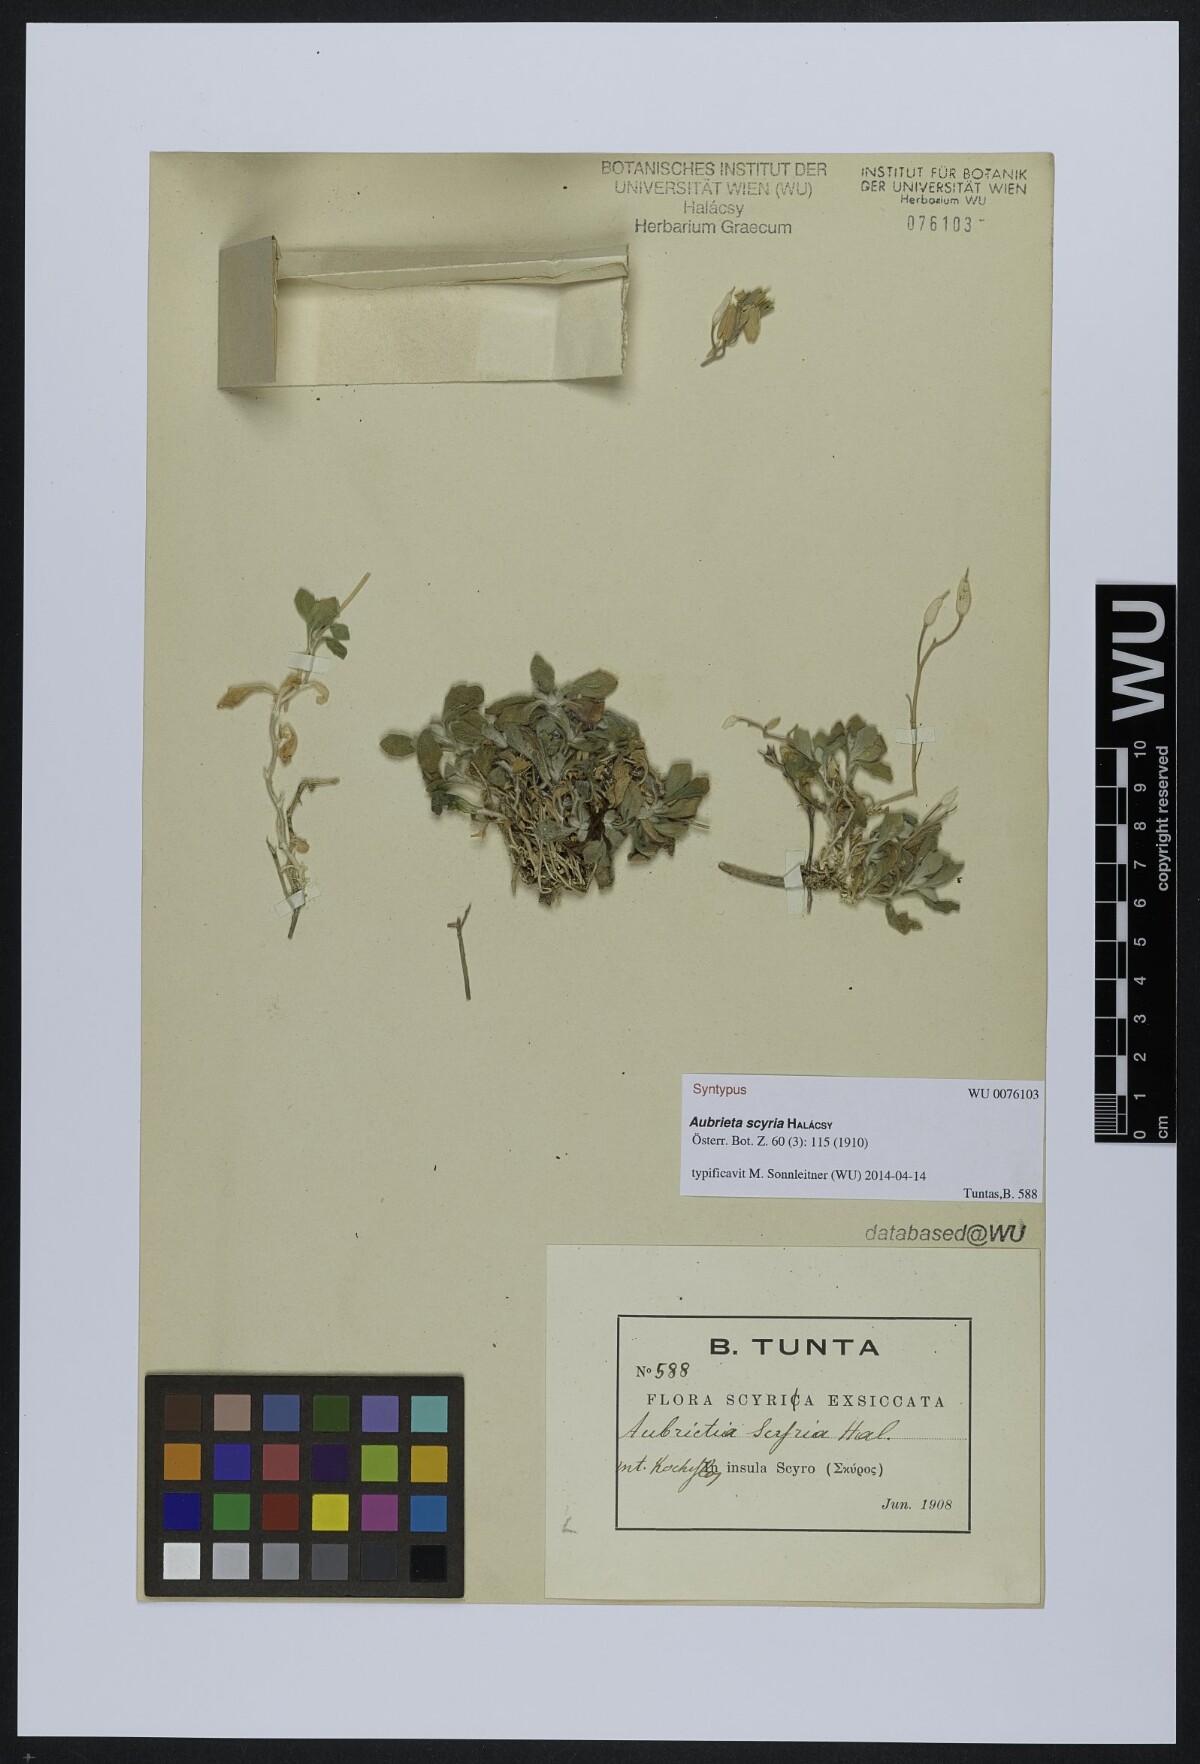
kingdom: Plantae
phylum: Tracheophyta
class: Magnoliopsida
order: Brassicales
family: Brassicaceae
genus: Aubrieta
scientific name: Aubrieta scyria
